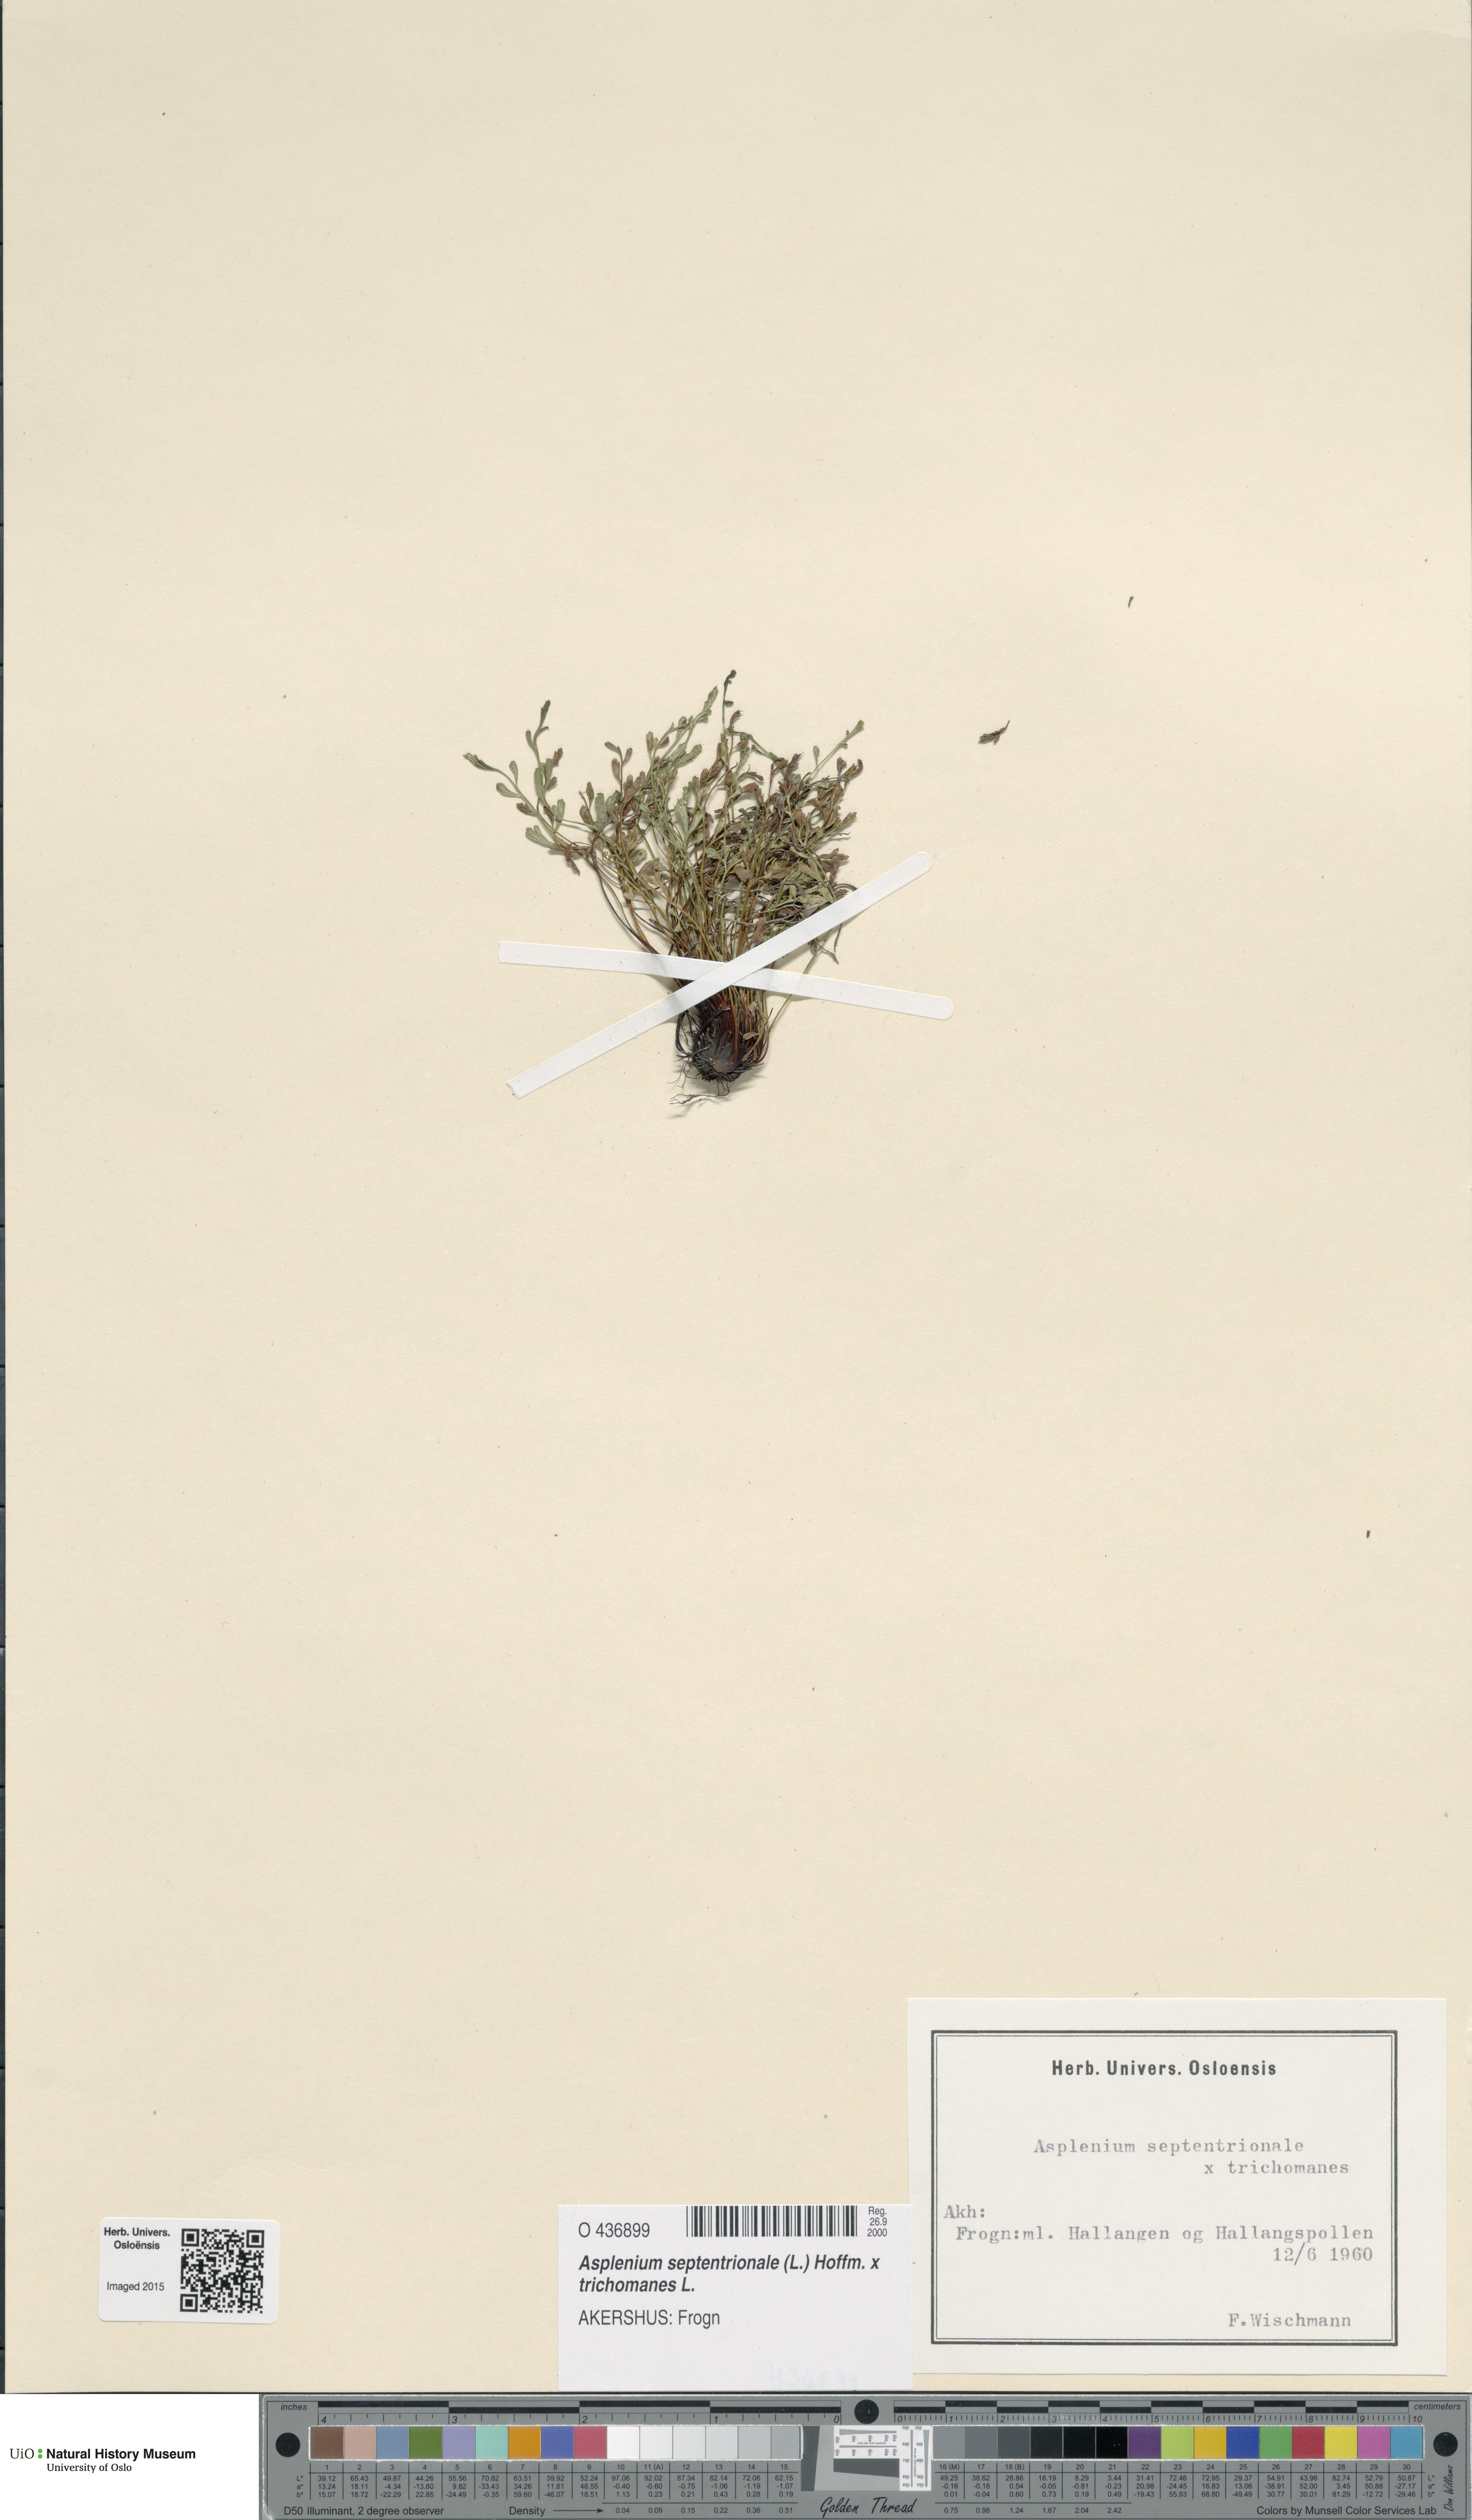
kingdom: Plantae
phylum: Tracheophyta
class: Polypodiopsida
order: Polypodiales
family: Aspleniaceae
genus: Asplenium
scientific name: Asplenium
